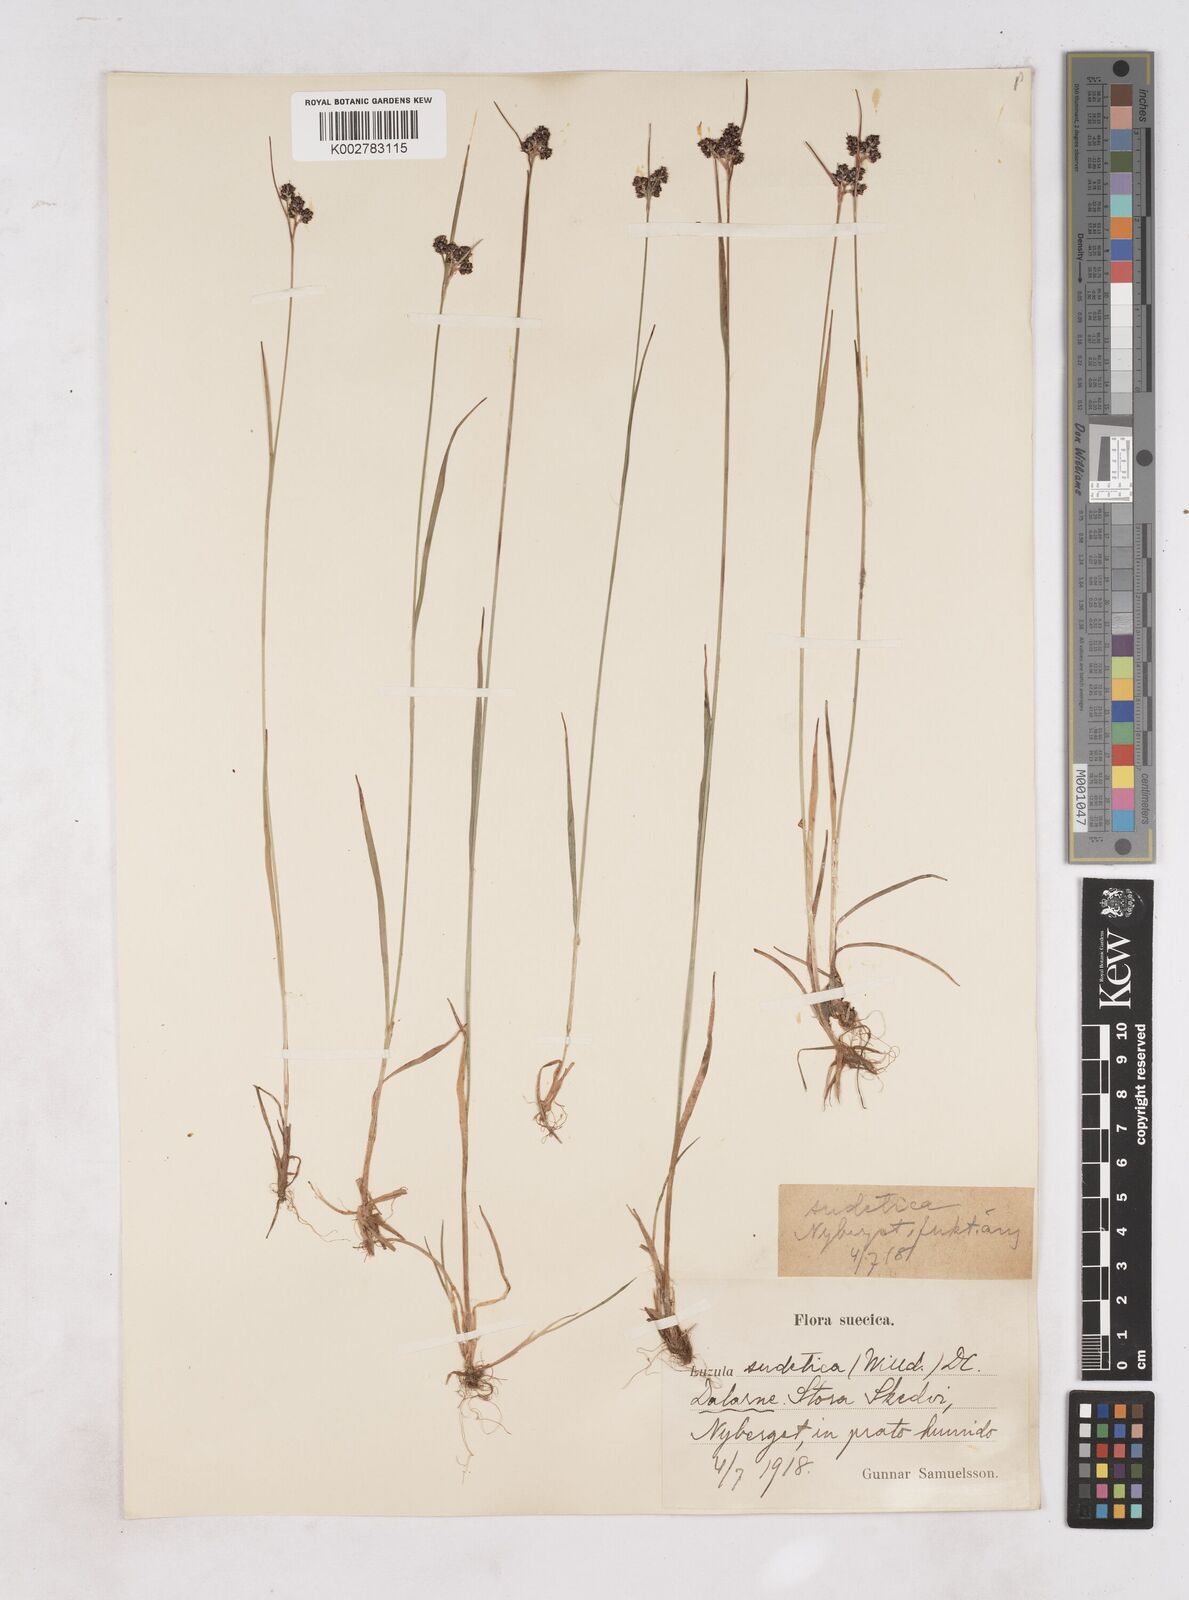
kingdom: Plantae
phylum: Tracheophyta
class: Liliopsida
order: Poales
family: Juncaceae
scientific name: Juncaceae
